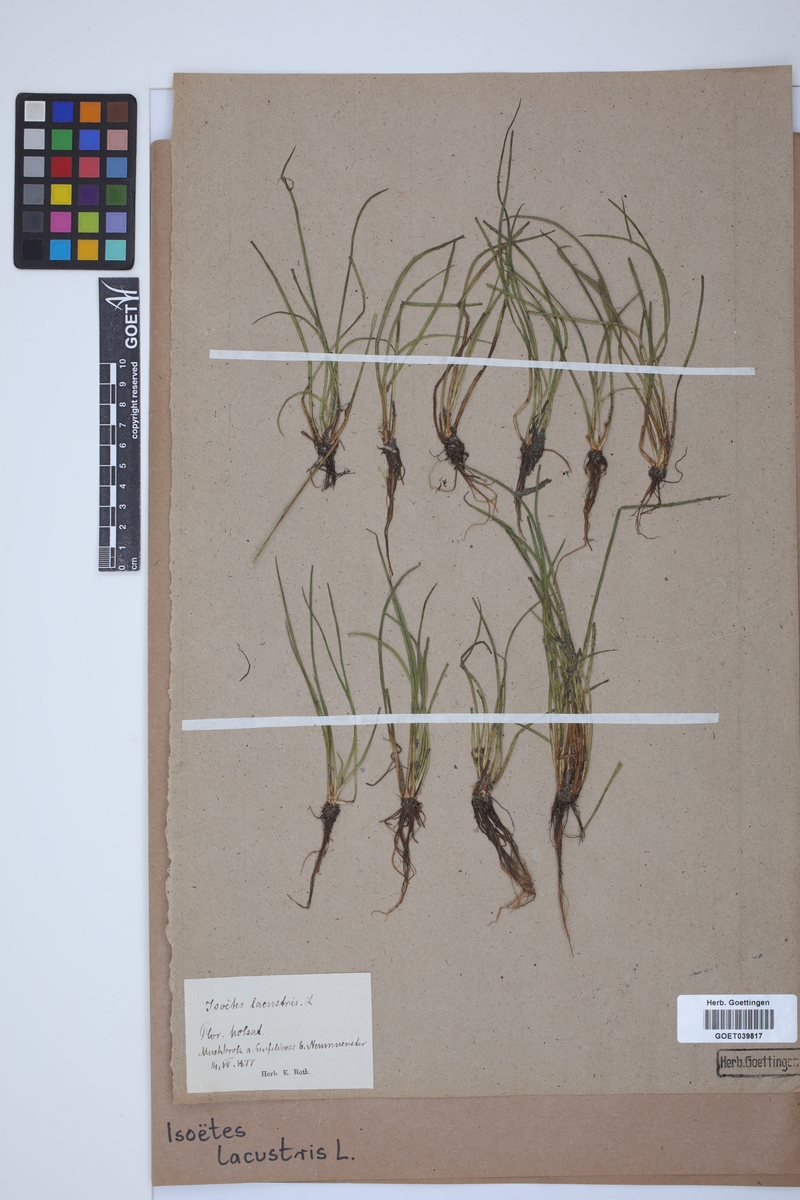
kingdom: Plantae
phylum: Tracheophyta
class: Lycopodiopsida
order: Isoetales
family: Isoetaceae
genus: Isoetes
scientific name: Isoetes lacustris
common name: Common quillwort
